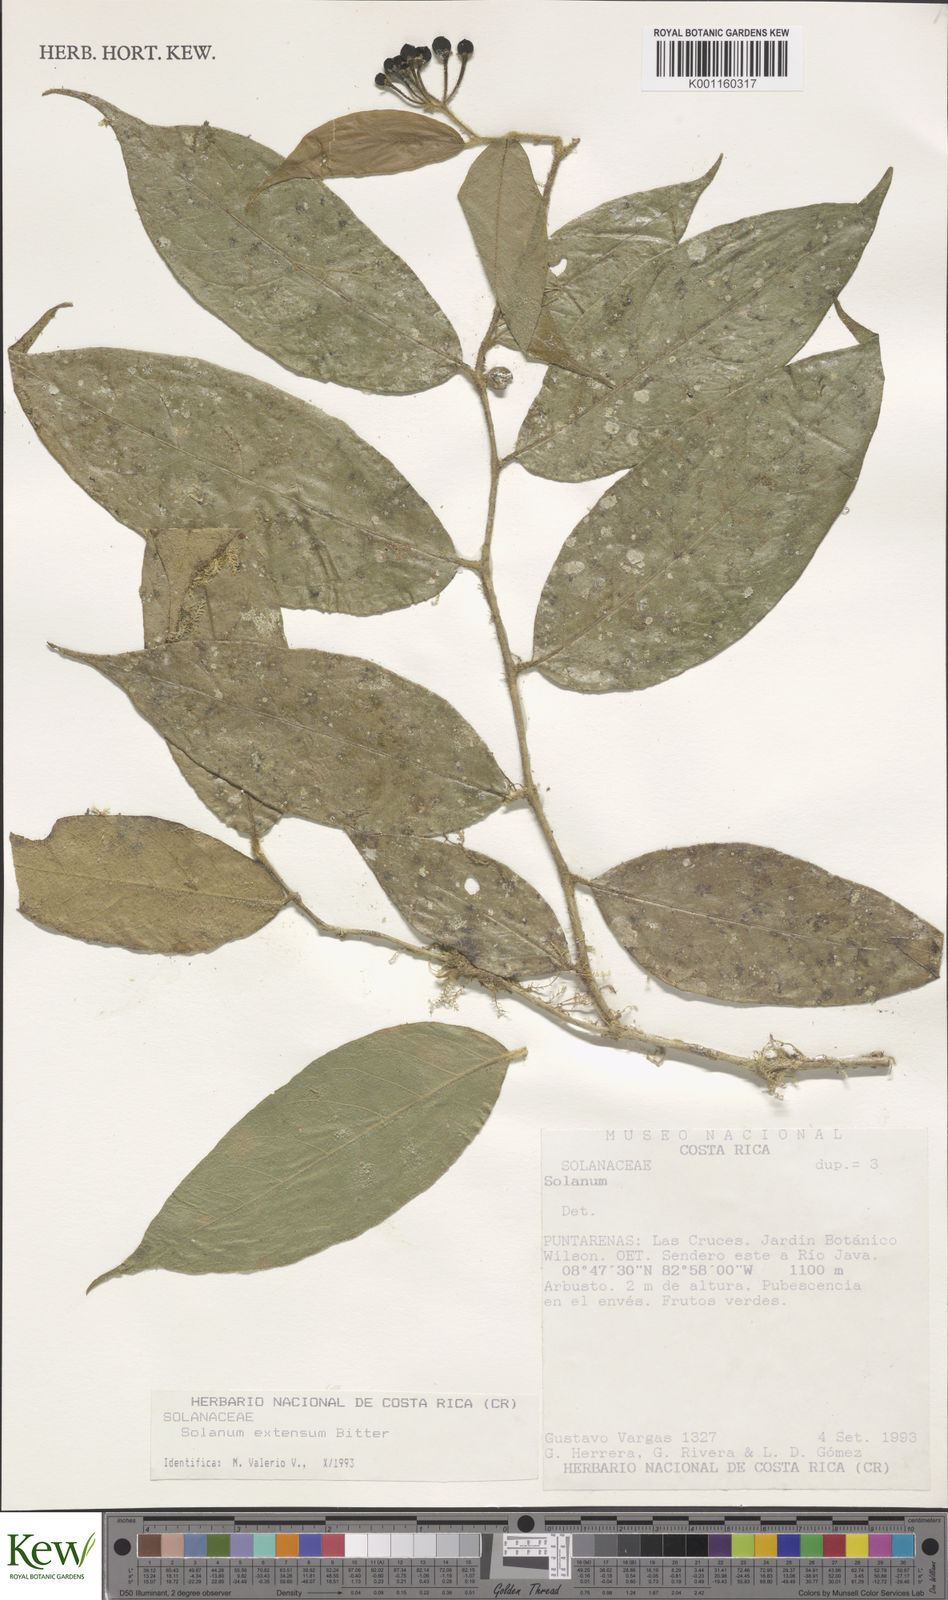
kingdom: Plantae
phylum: Tracheophyta
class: Magnoliopsida
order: Solanales
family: Solanaceae
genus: Solanum
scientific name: Solanum armentalis
